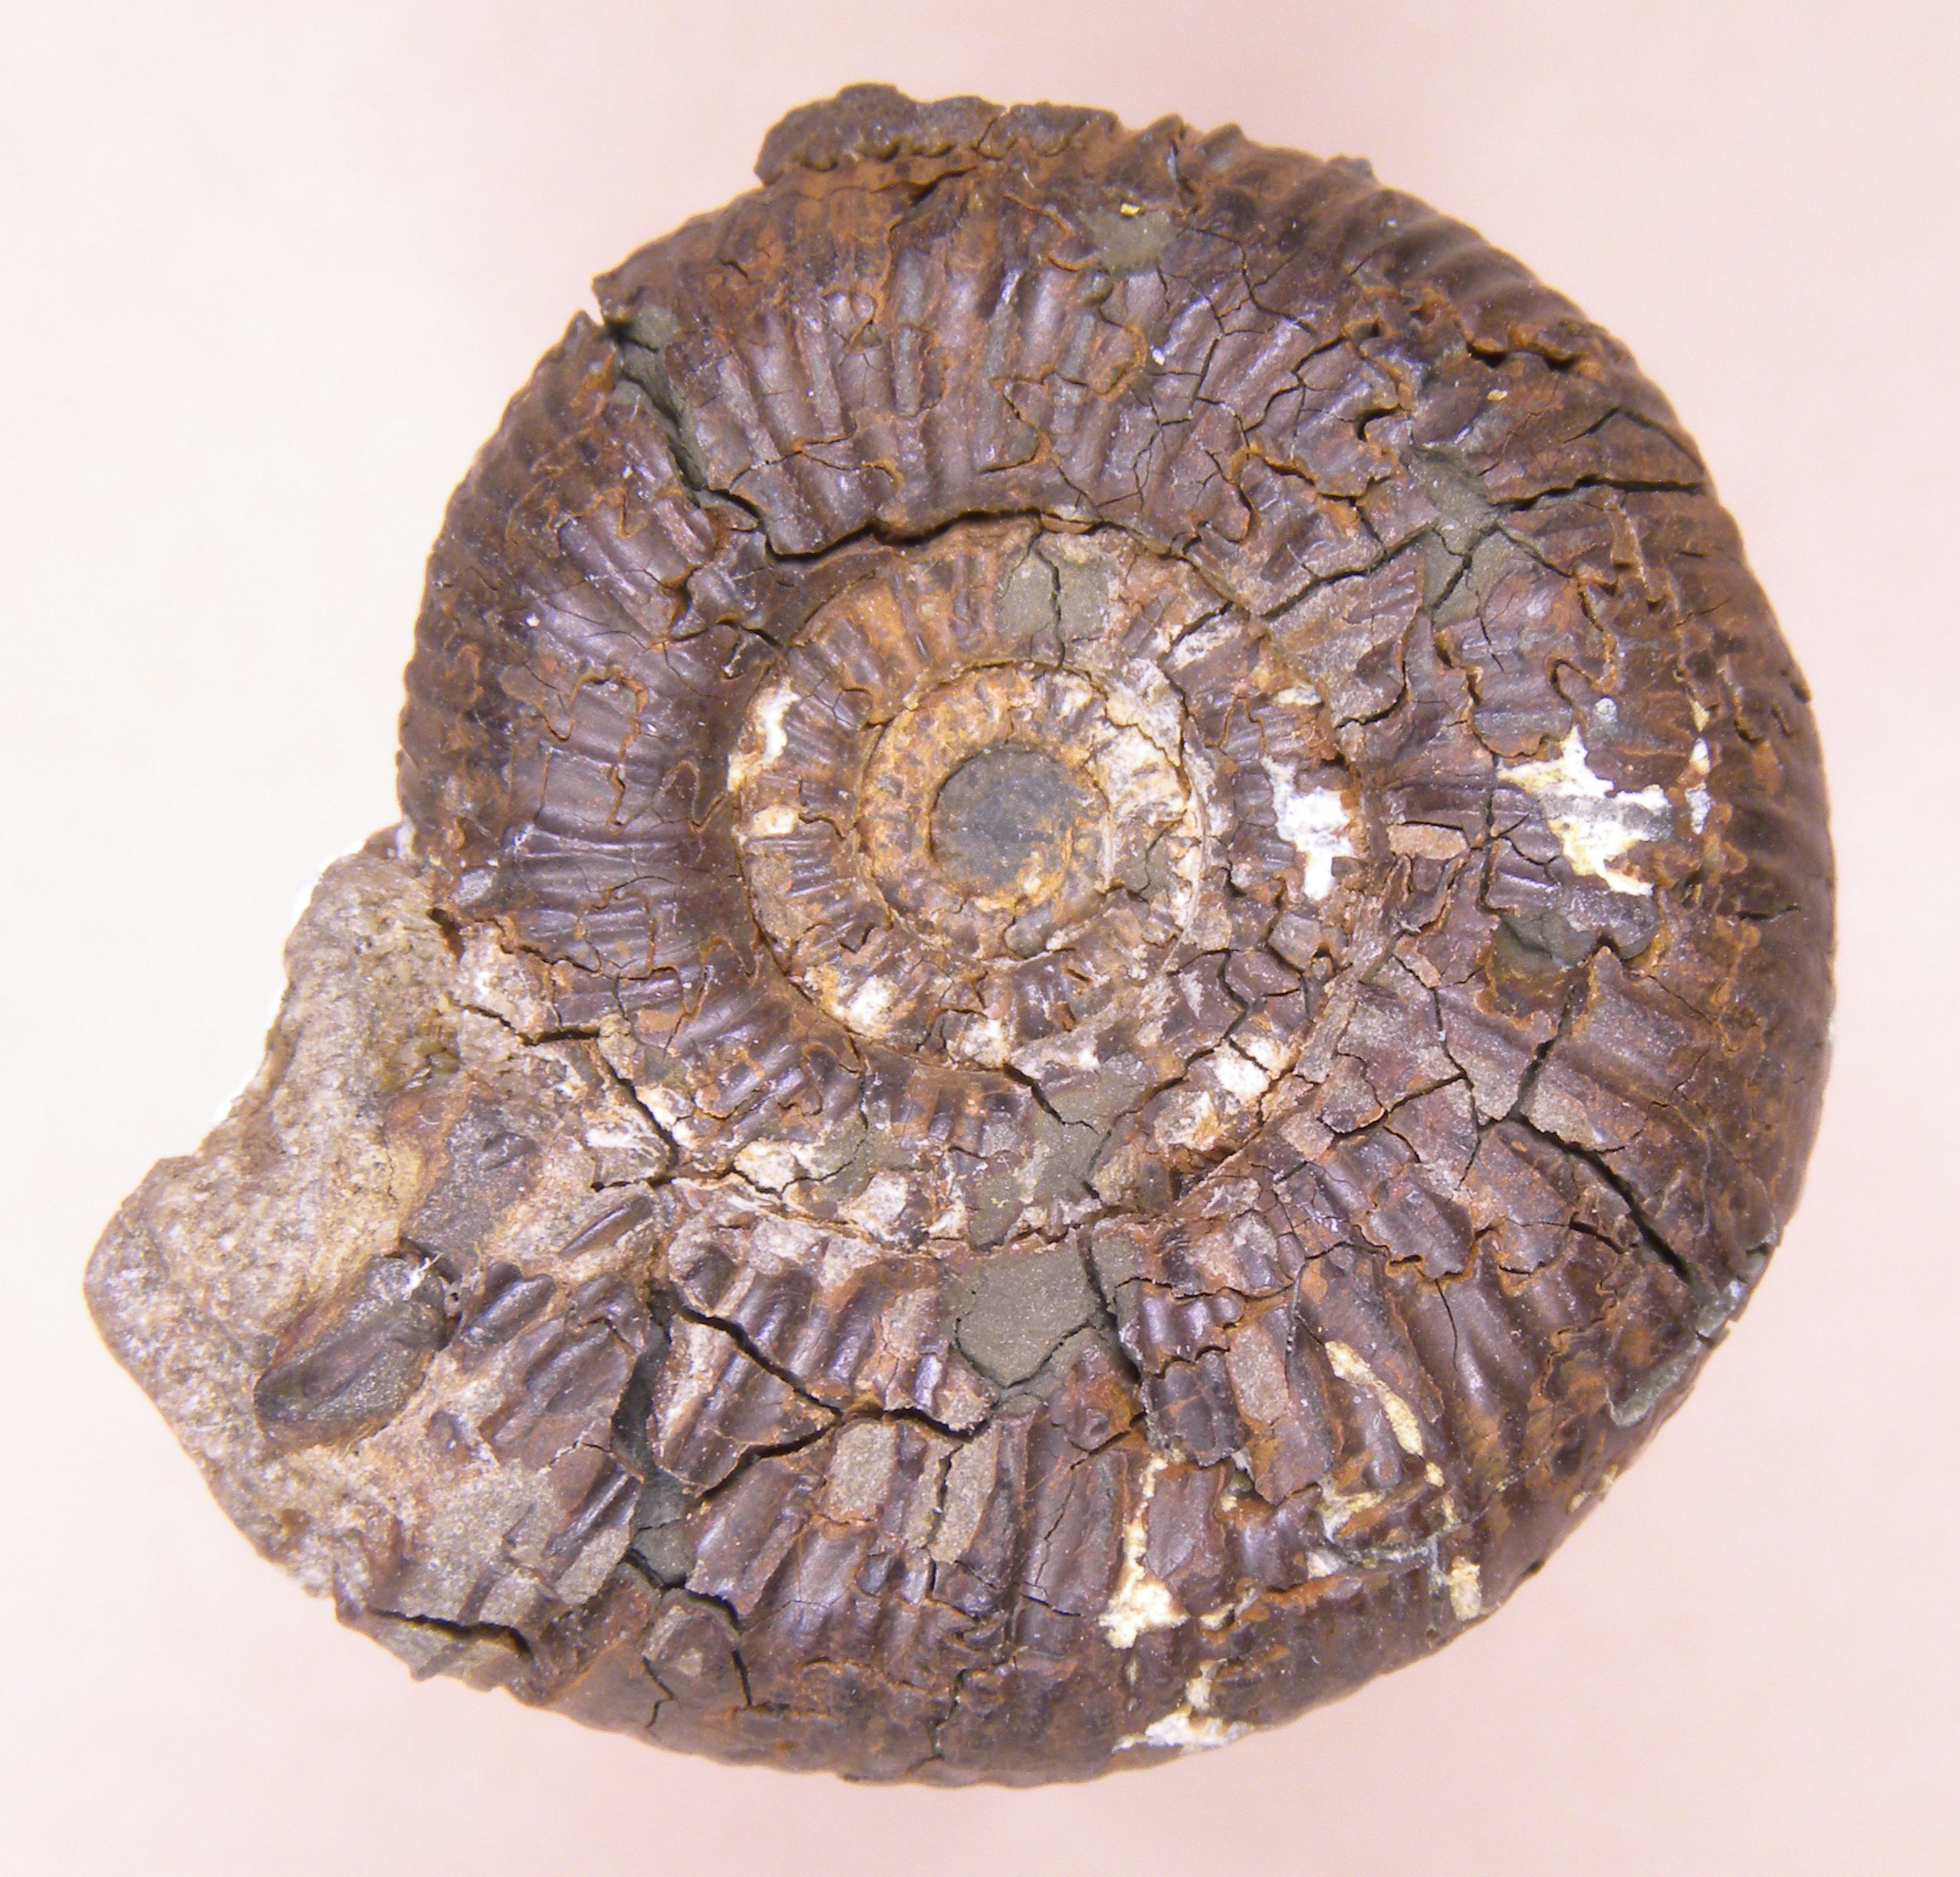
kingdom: Animalia
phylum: Mollusca
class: Cephalopoda
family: Dactylioceratidae
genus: Dactylioceras
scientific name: Dactylioceras
